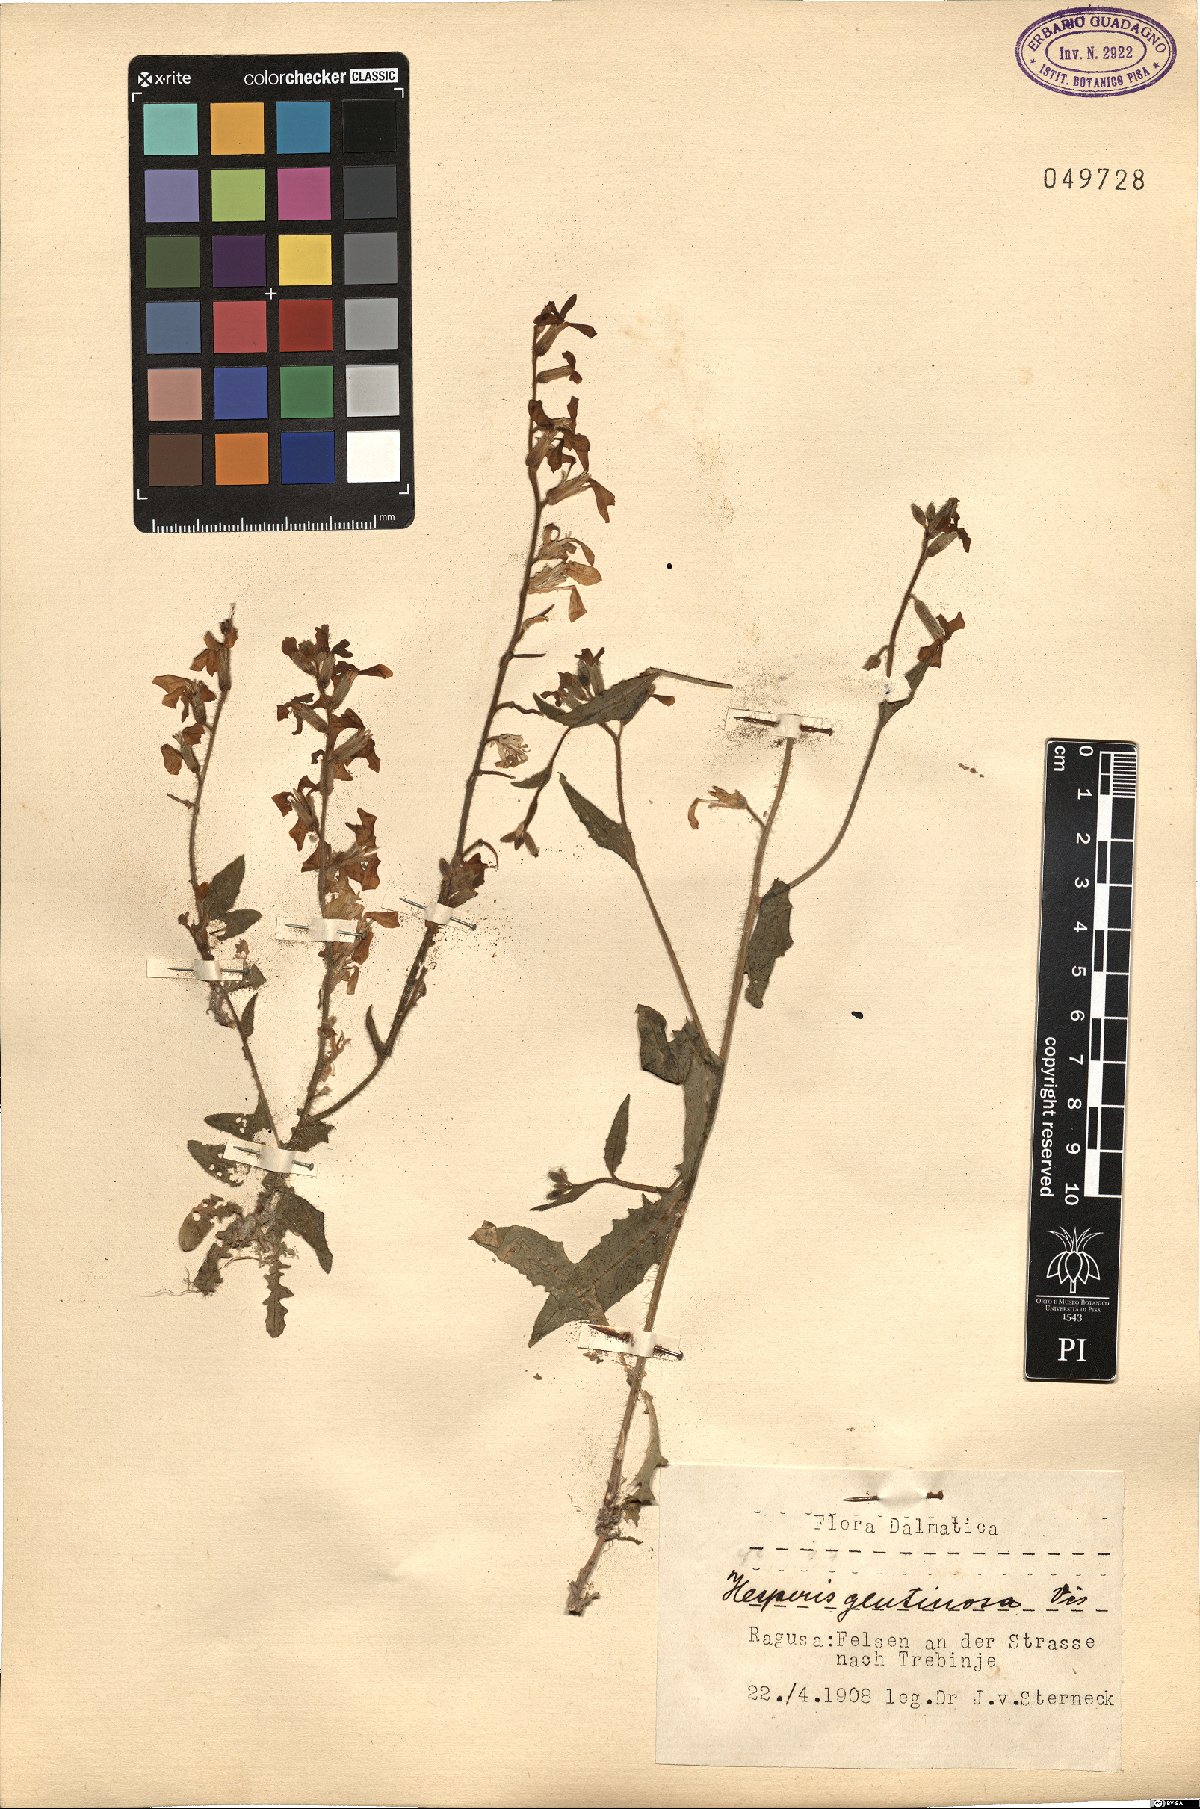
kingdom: Plantae
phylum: Tracheophyta
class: Magnoliopsida
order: Brassicales
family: Brassicaceae
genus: Hesperis
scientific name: Hesperis laciniata
